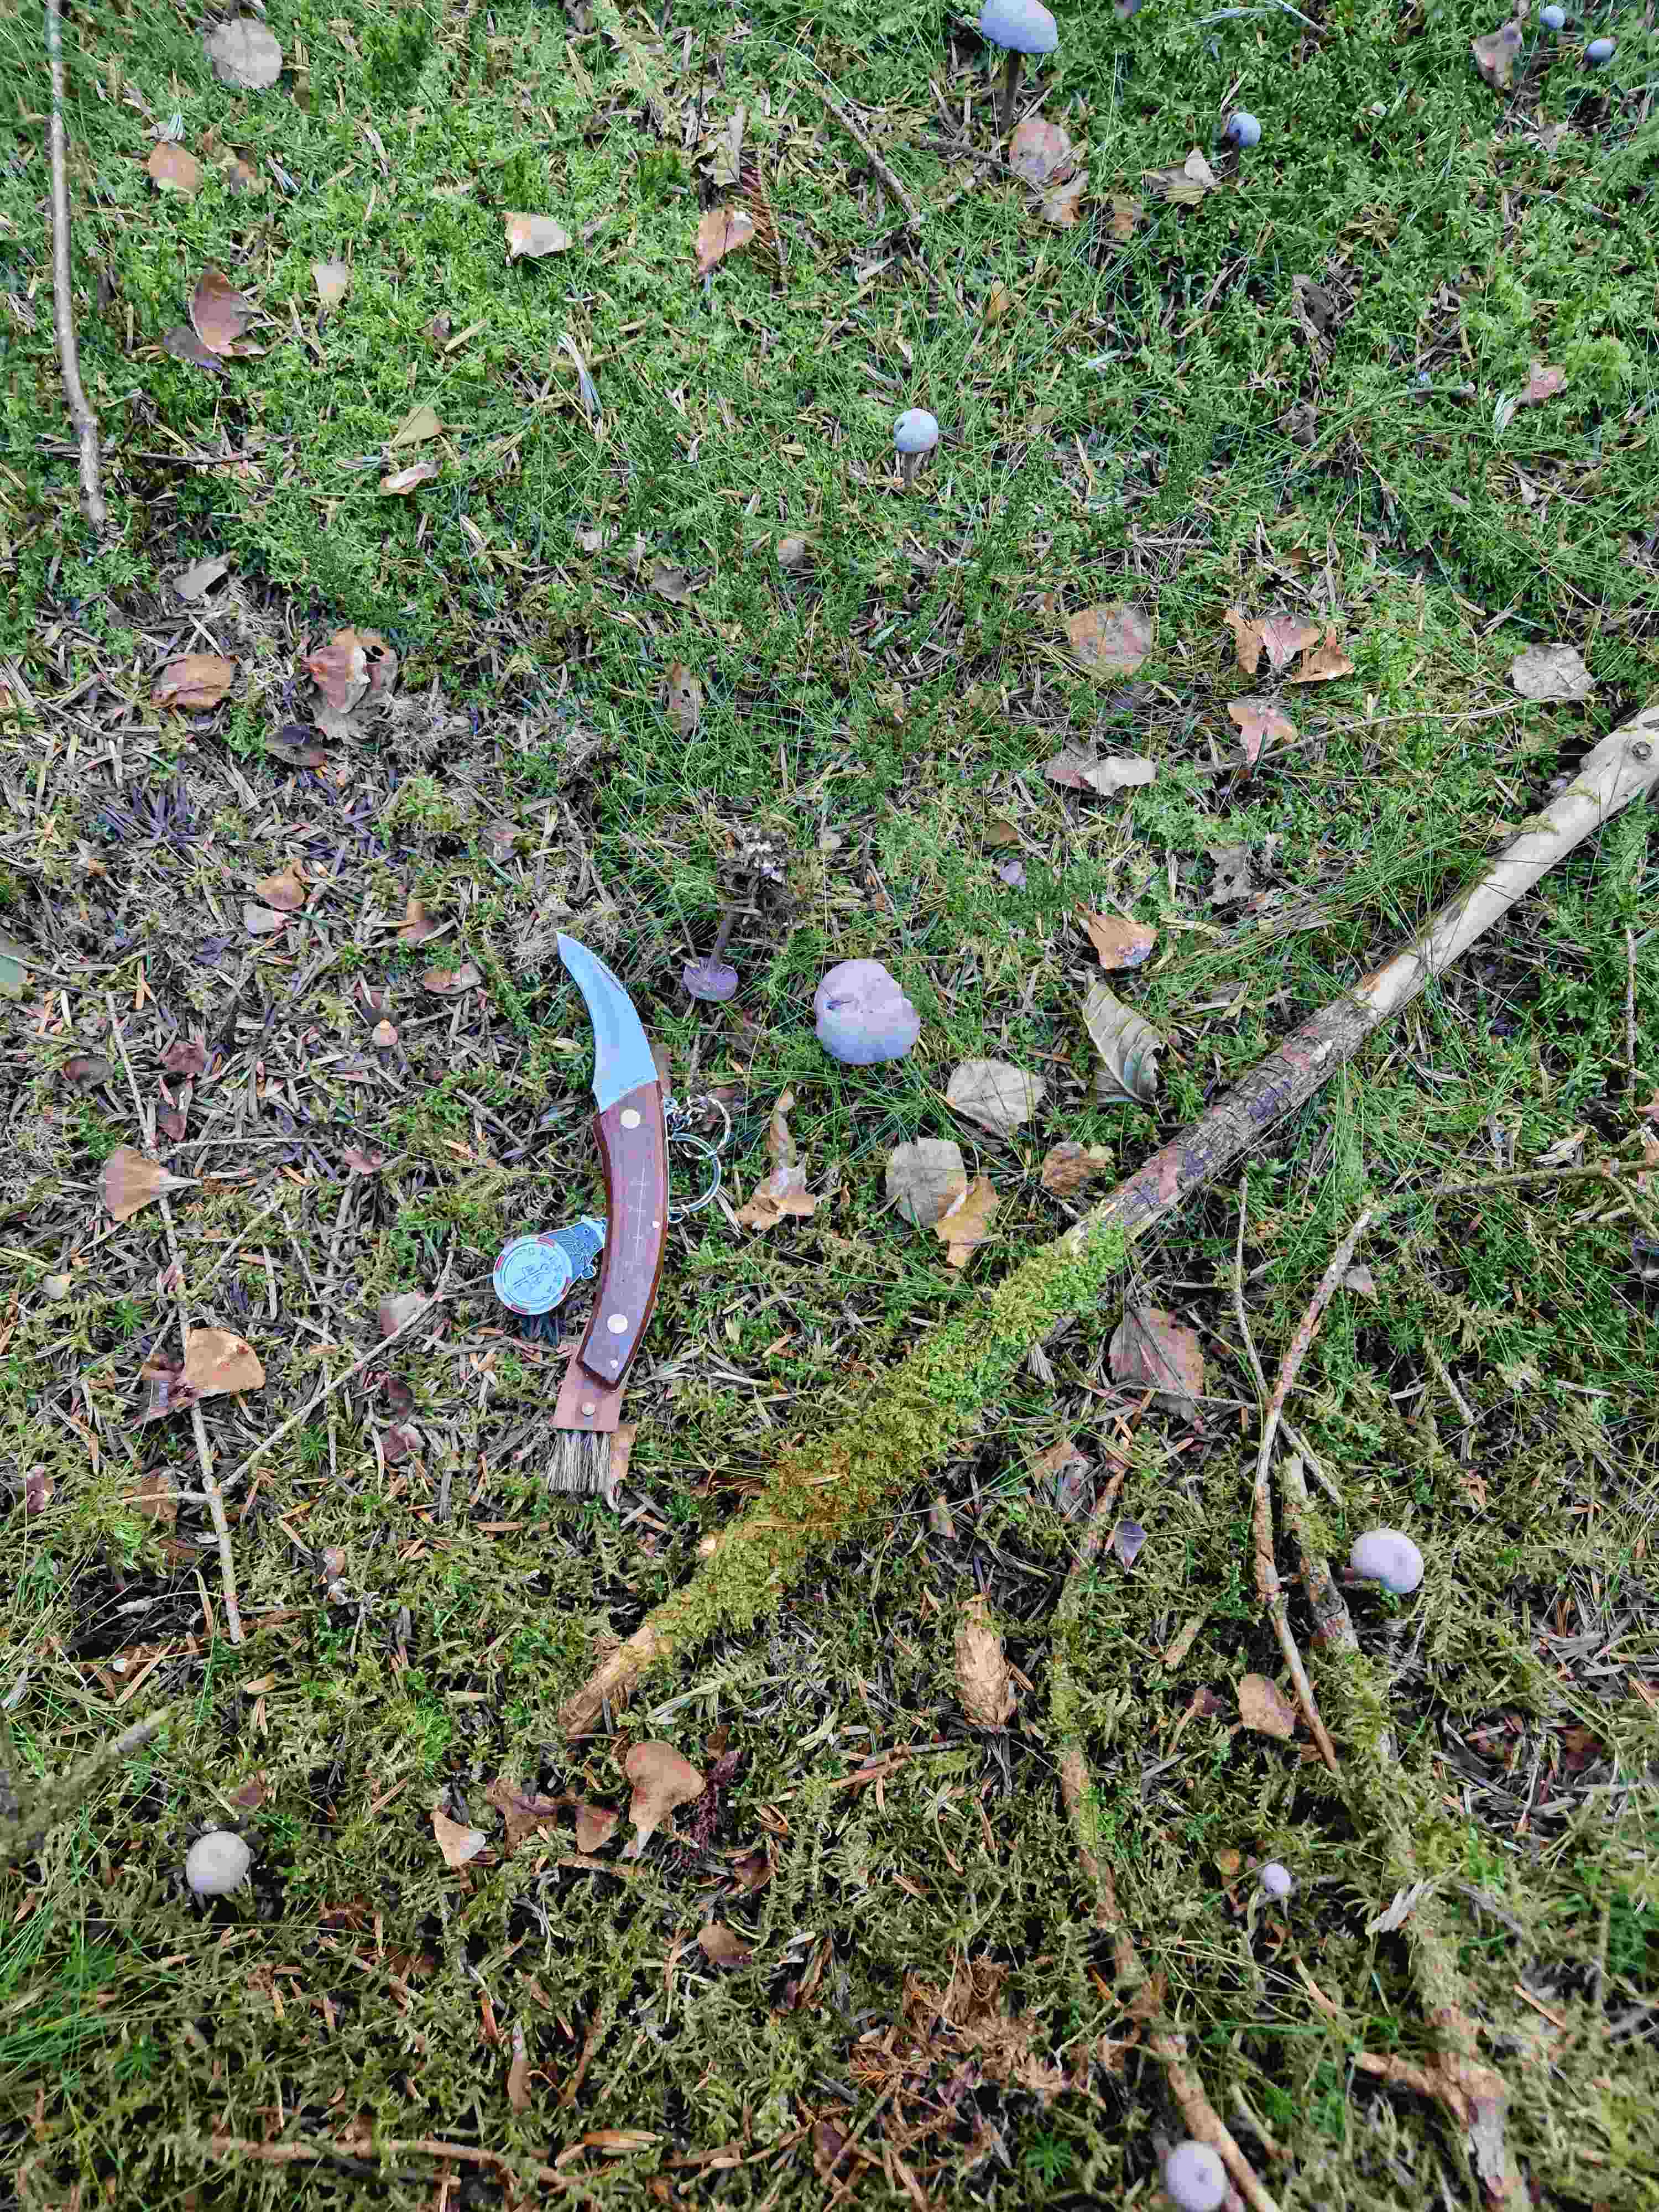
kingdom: Fungi
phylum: Basidiomycota
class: Agaricomycetes
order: Agaricales
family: Hydnangiaceae
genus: Laccaria
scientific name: Laccaria amethystina
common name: violet ametysthat
